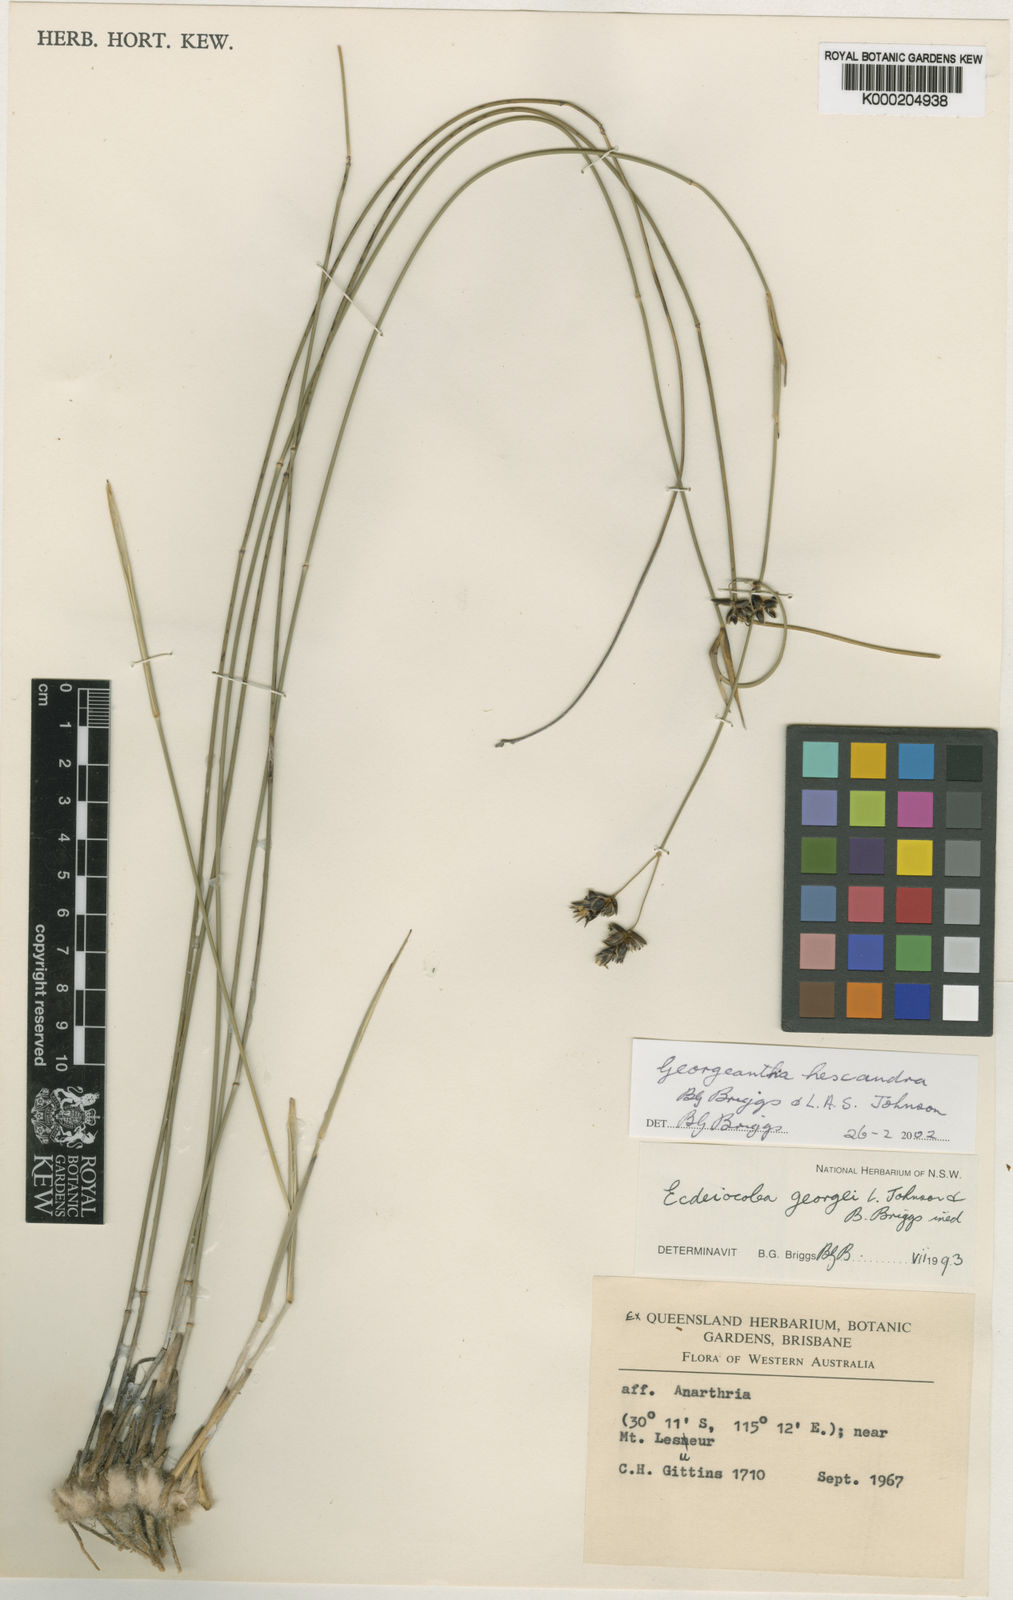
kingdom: Plantae
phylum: Tracheophyta
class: Liliopsida
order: Poales
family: Ecdeiocoleaceae
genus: Georgeantha
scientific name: Georgeantha hexandra
